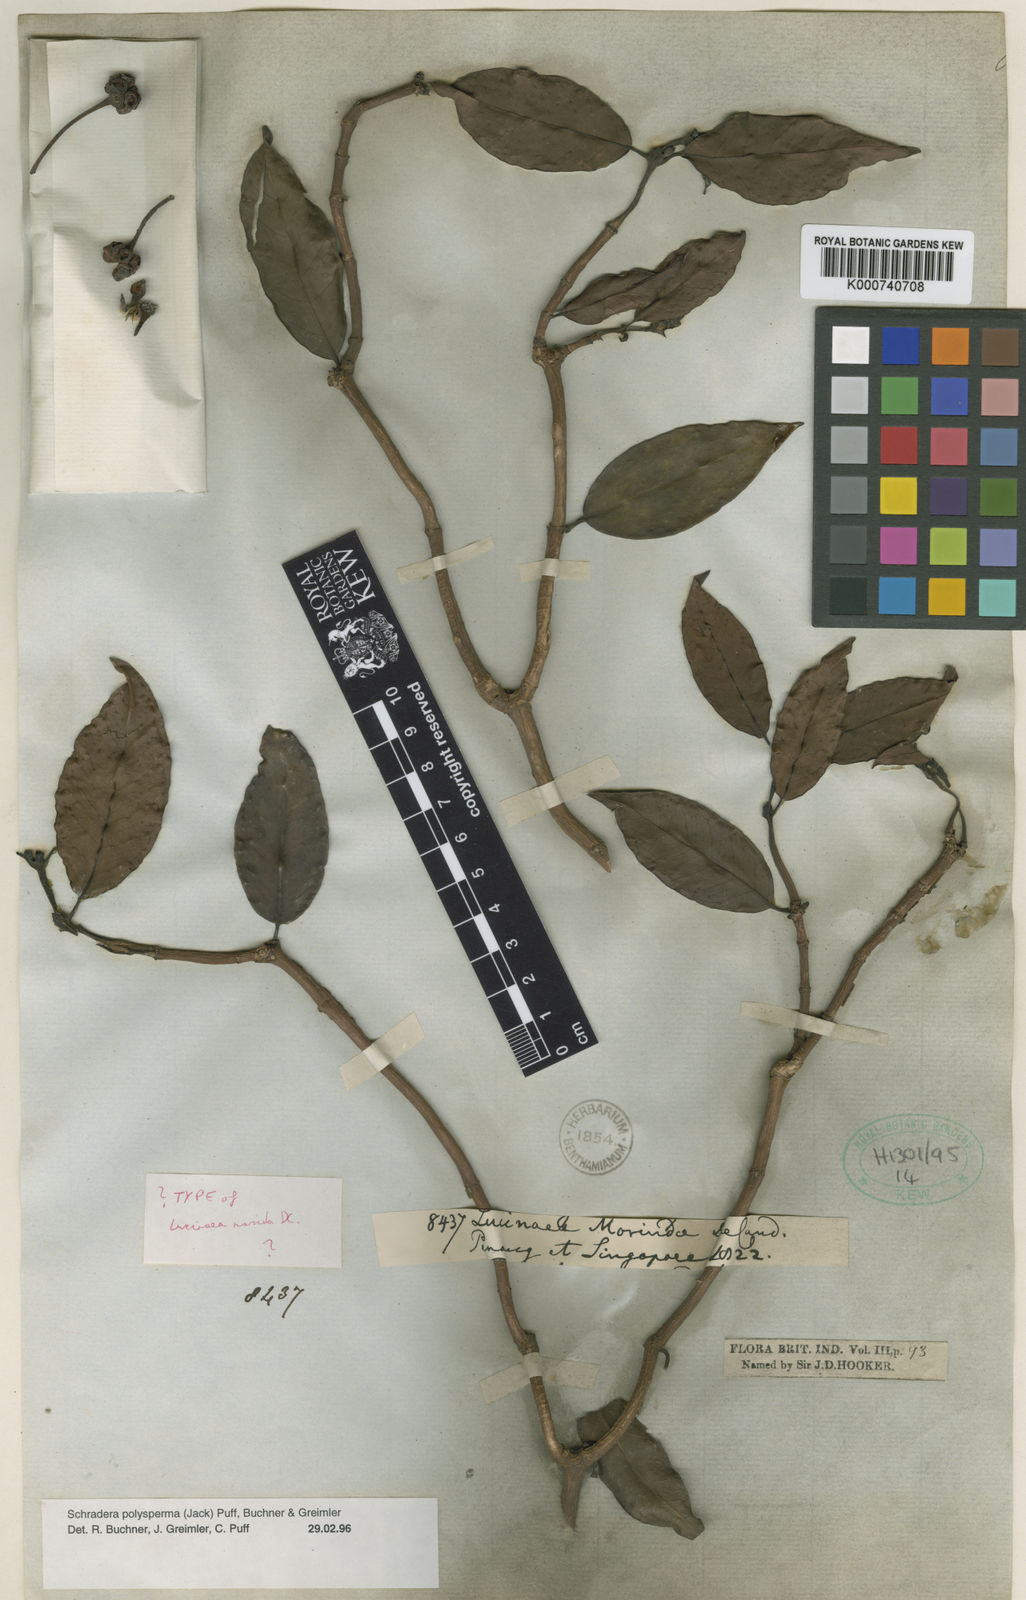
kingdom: Plantae
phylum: Tracheophyta
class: Magnoliopsida
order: Gentianales
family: Rubiaceae
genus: Schradera
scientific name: Schradera polysperma
